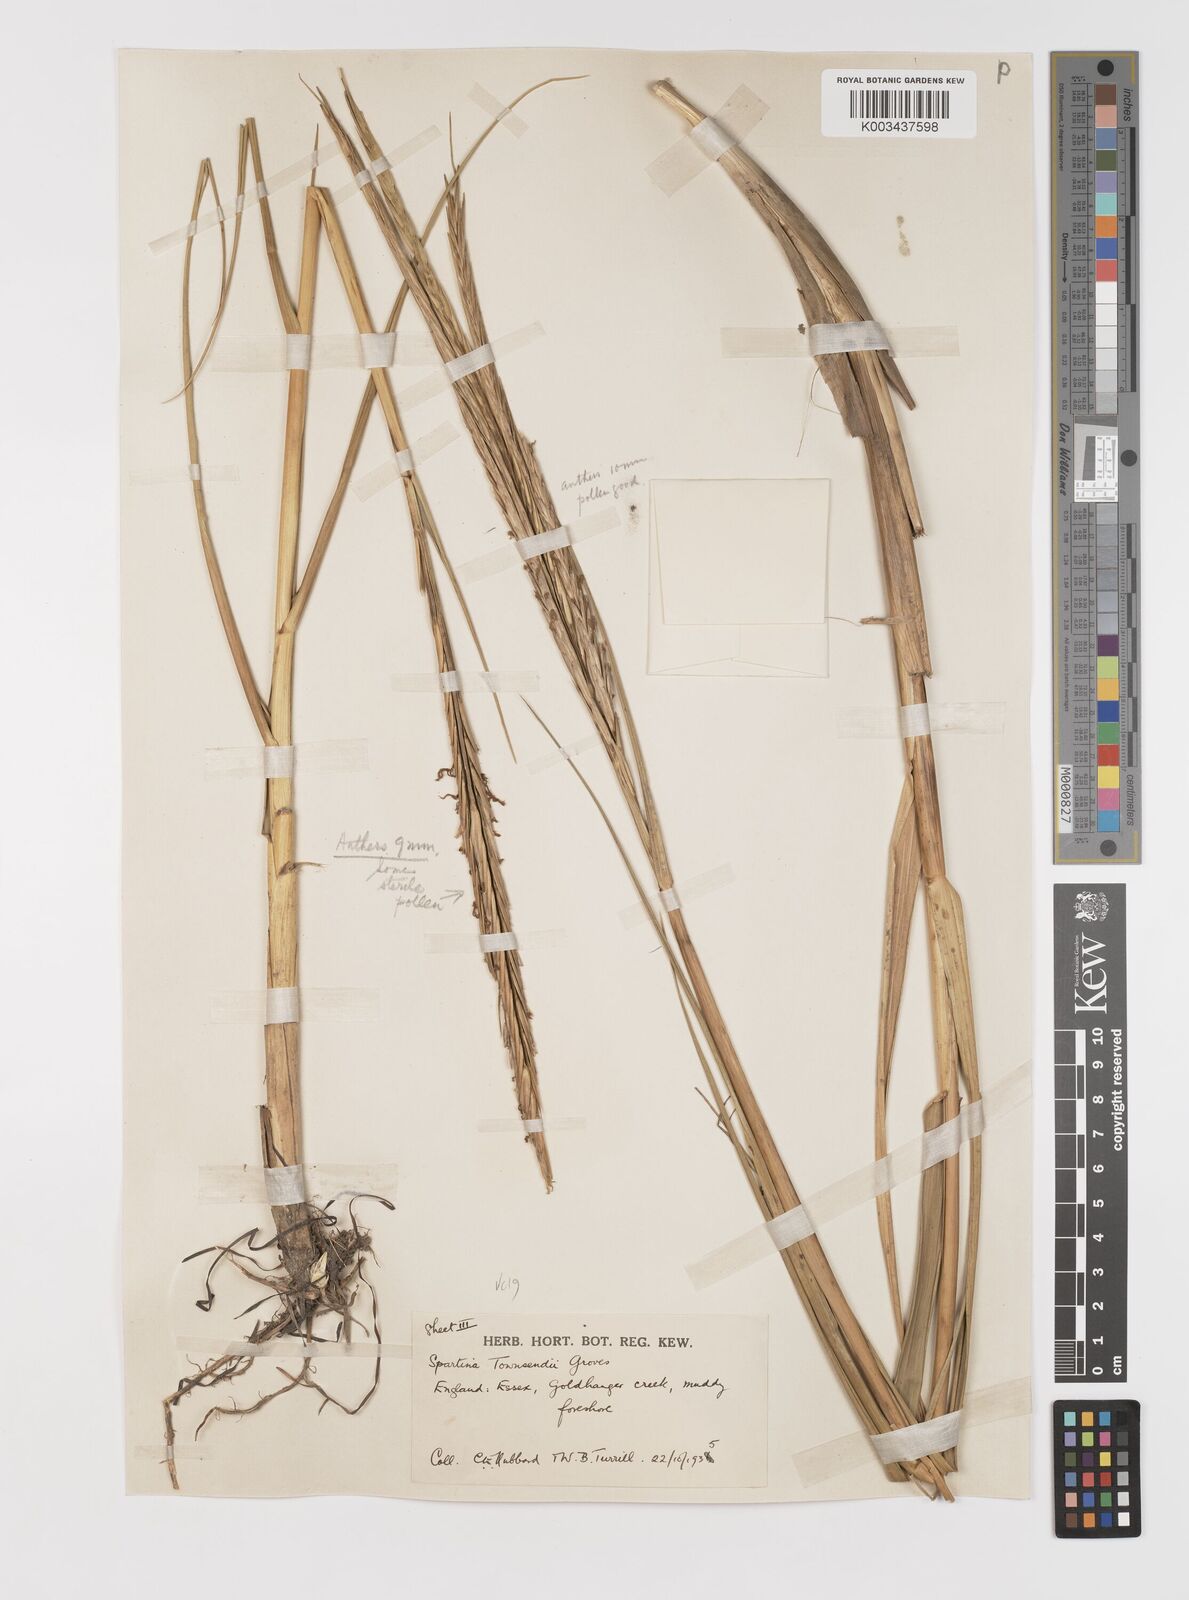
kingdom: Plantae
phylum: Tracheophyta
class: Liliopsida
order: Poales
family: Poaceae
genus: Sporobolus
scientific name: Sporobolus anglicus
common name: English cordgrass
